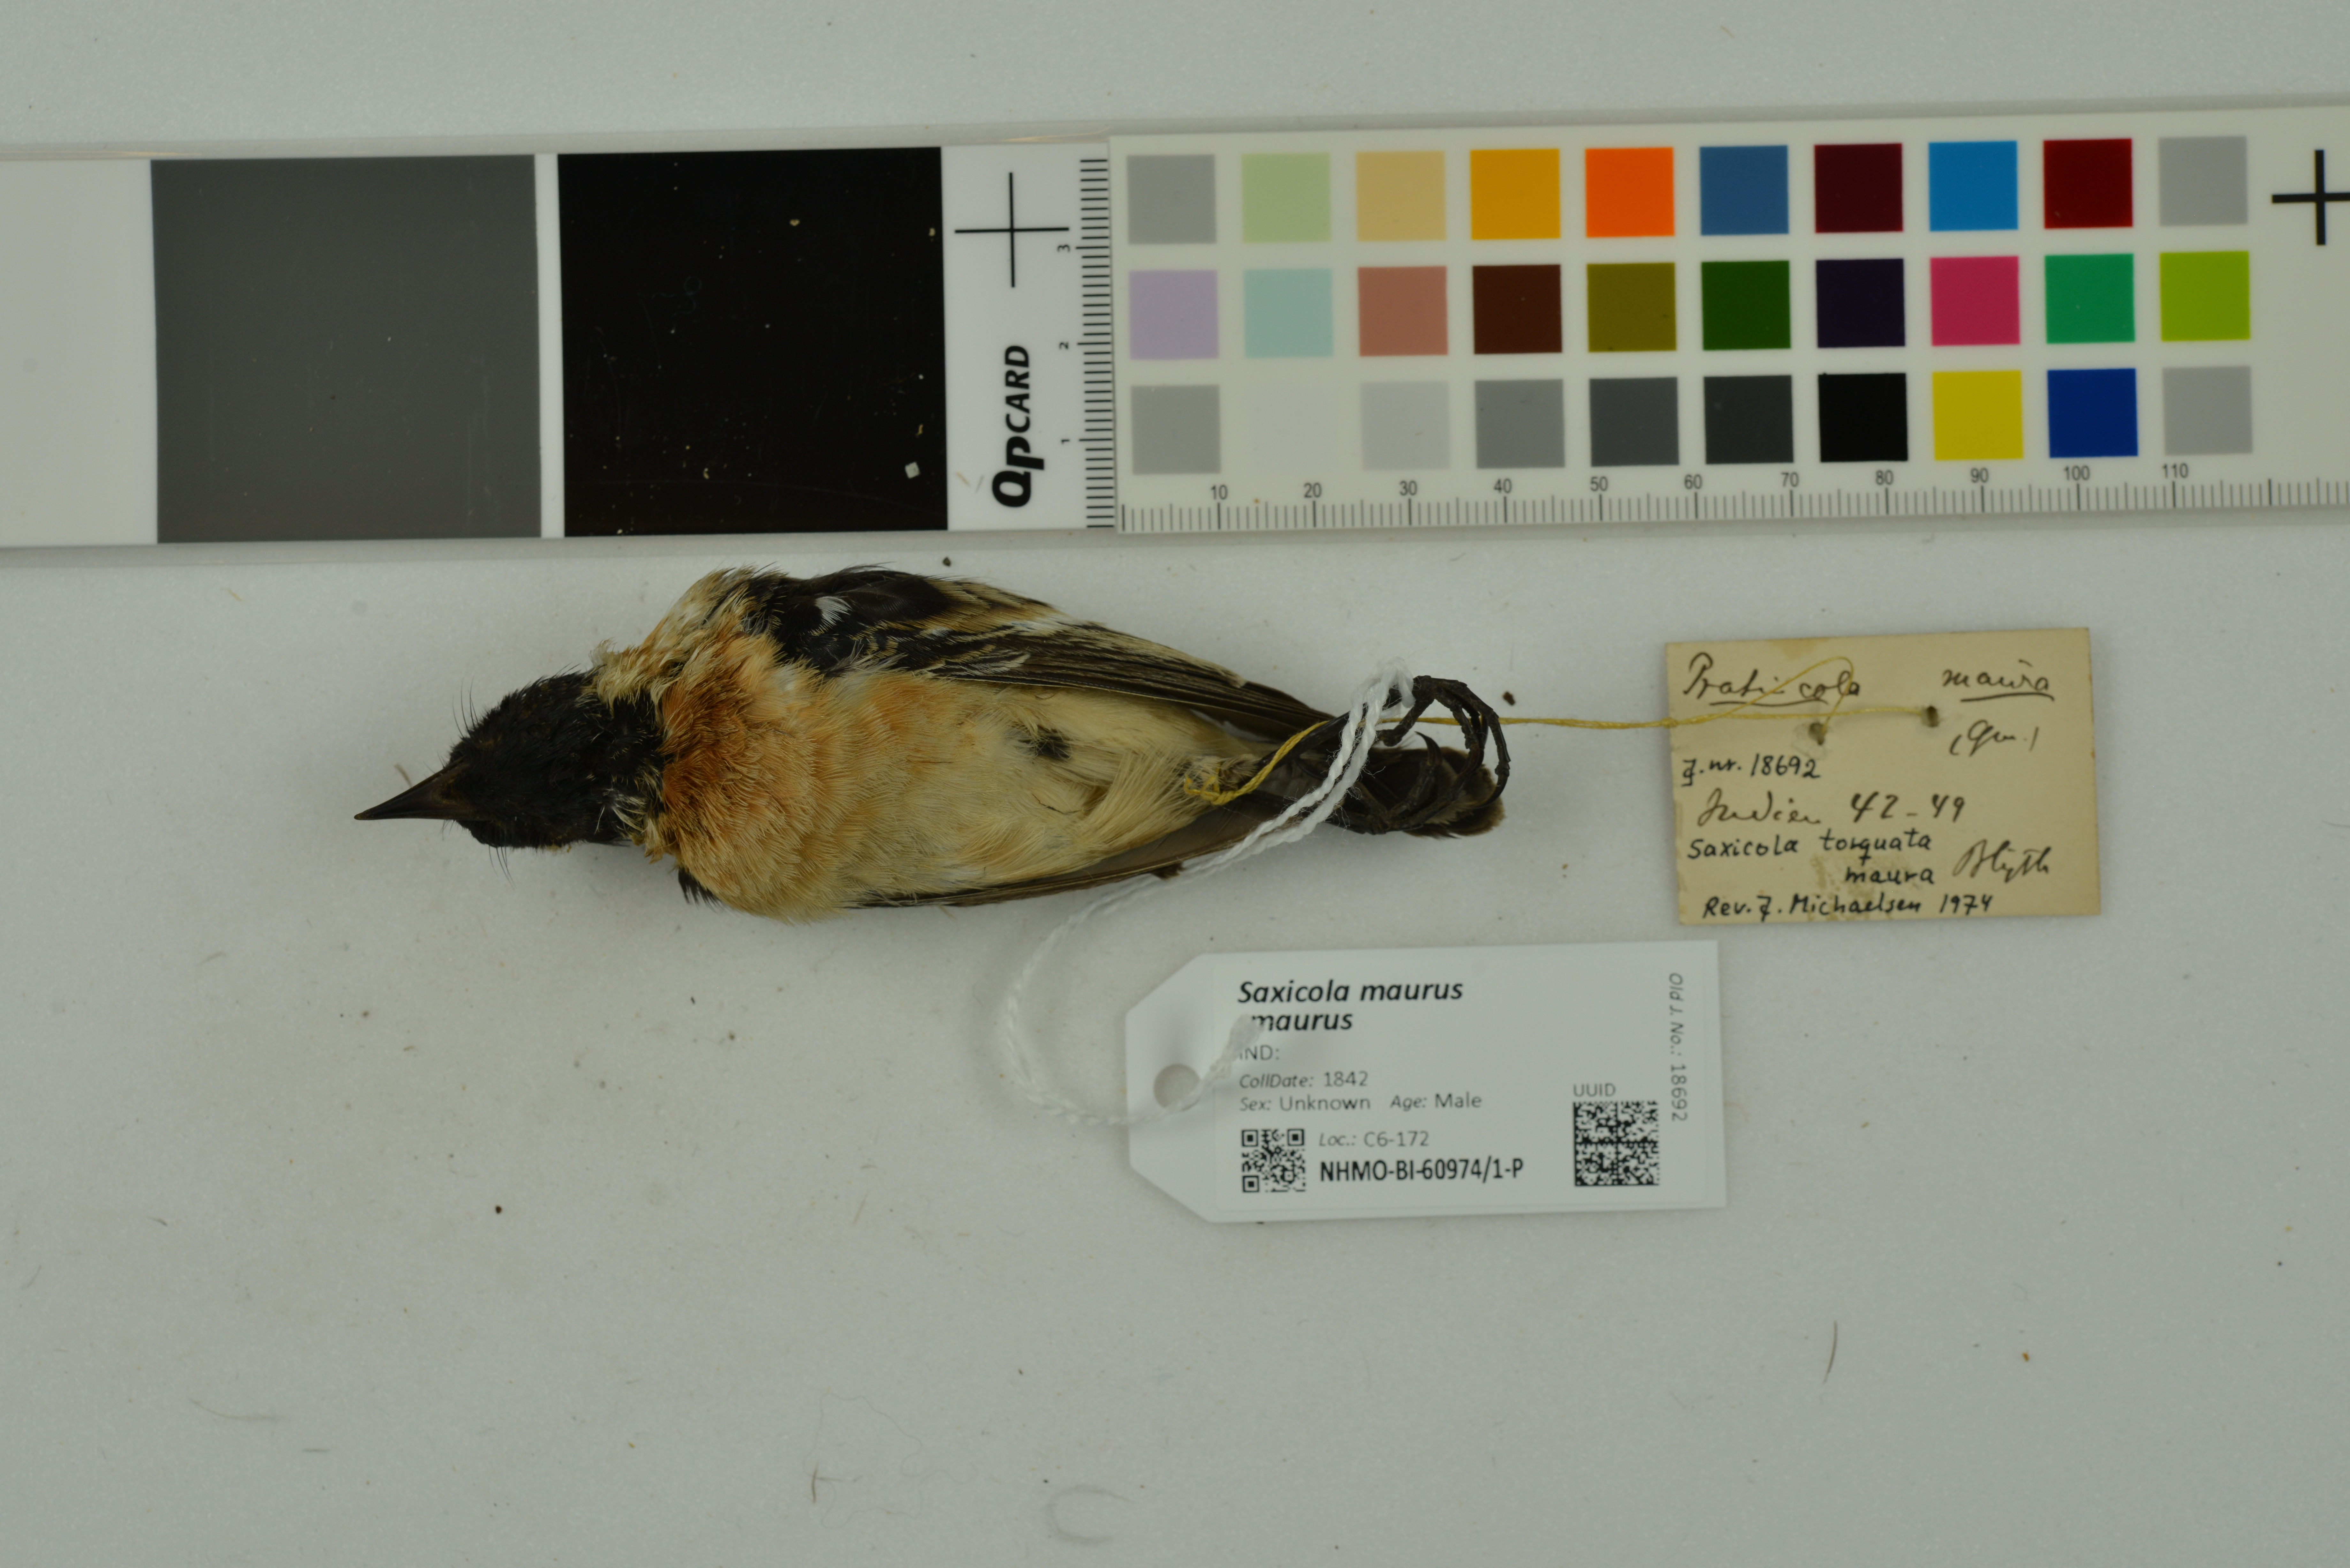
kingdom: Animalia
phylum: Chordata
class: Aves
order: Passeriformes
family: Muscicapidae
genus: Saxicola
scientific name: Saxicola maurus
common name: Siberian stonechat
